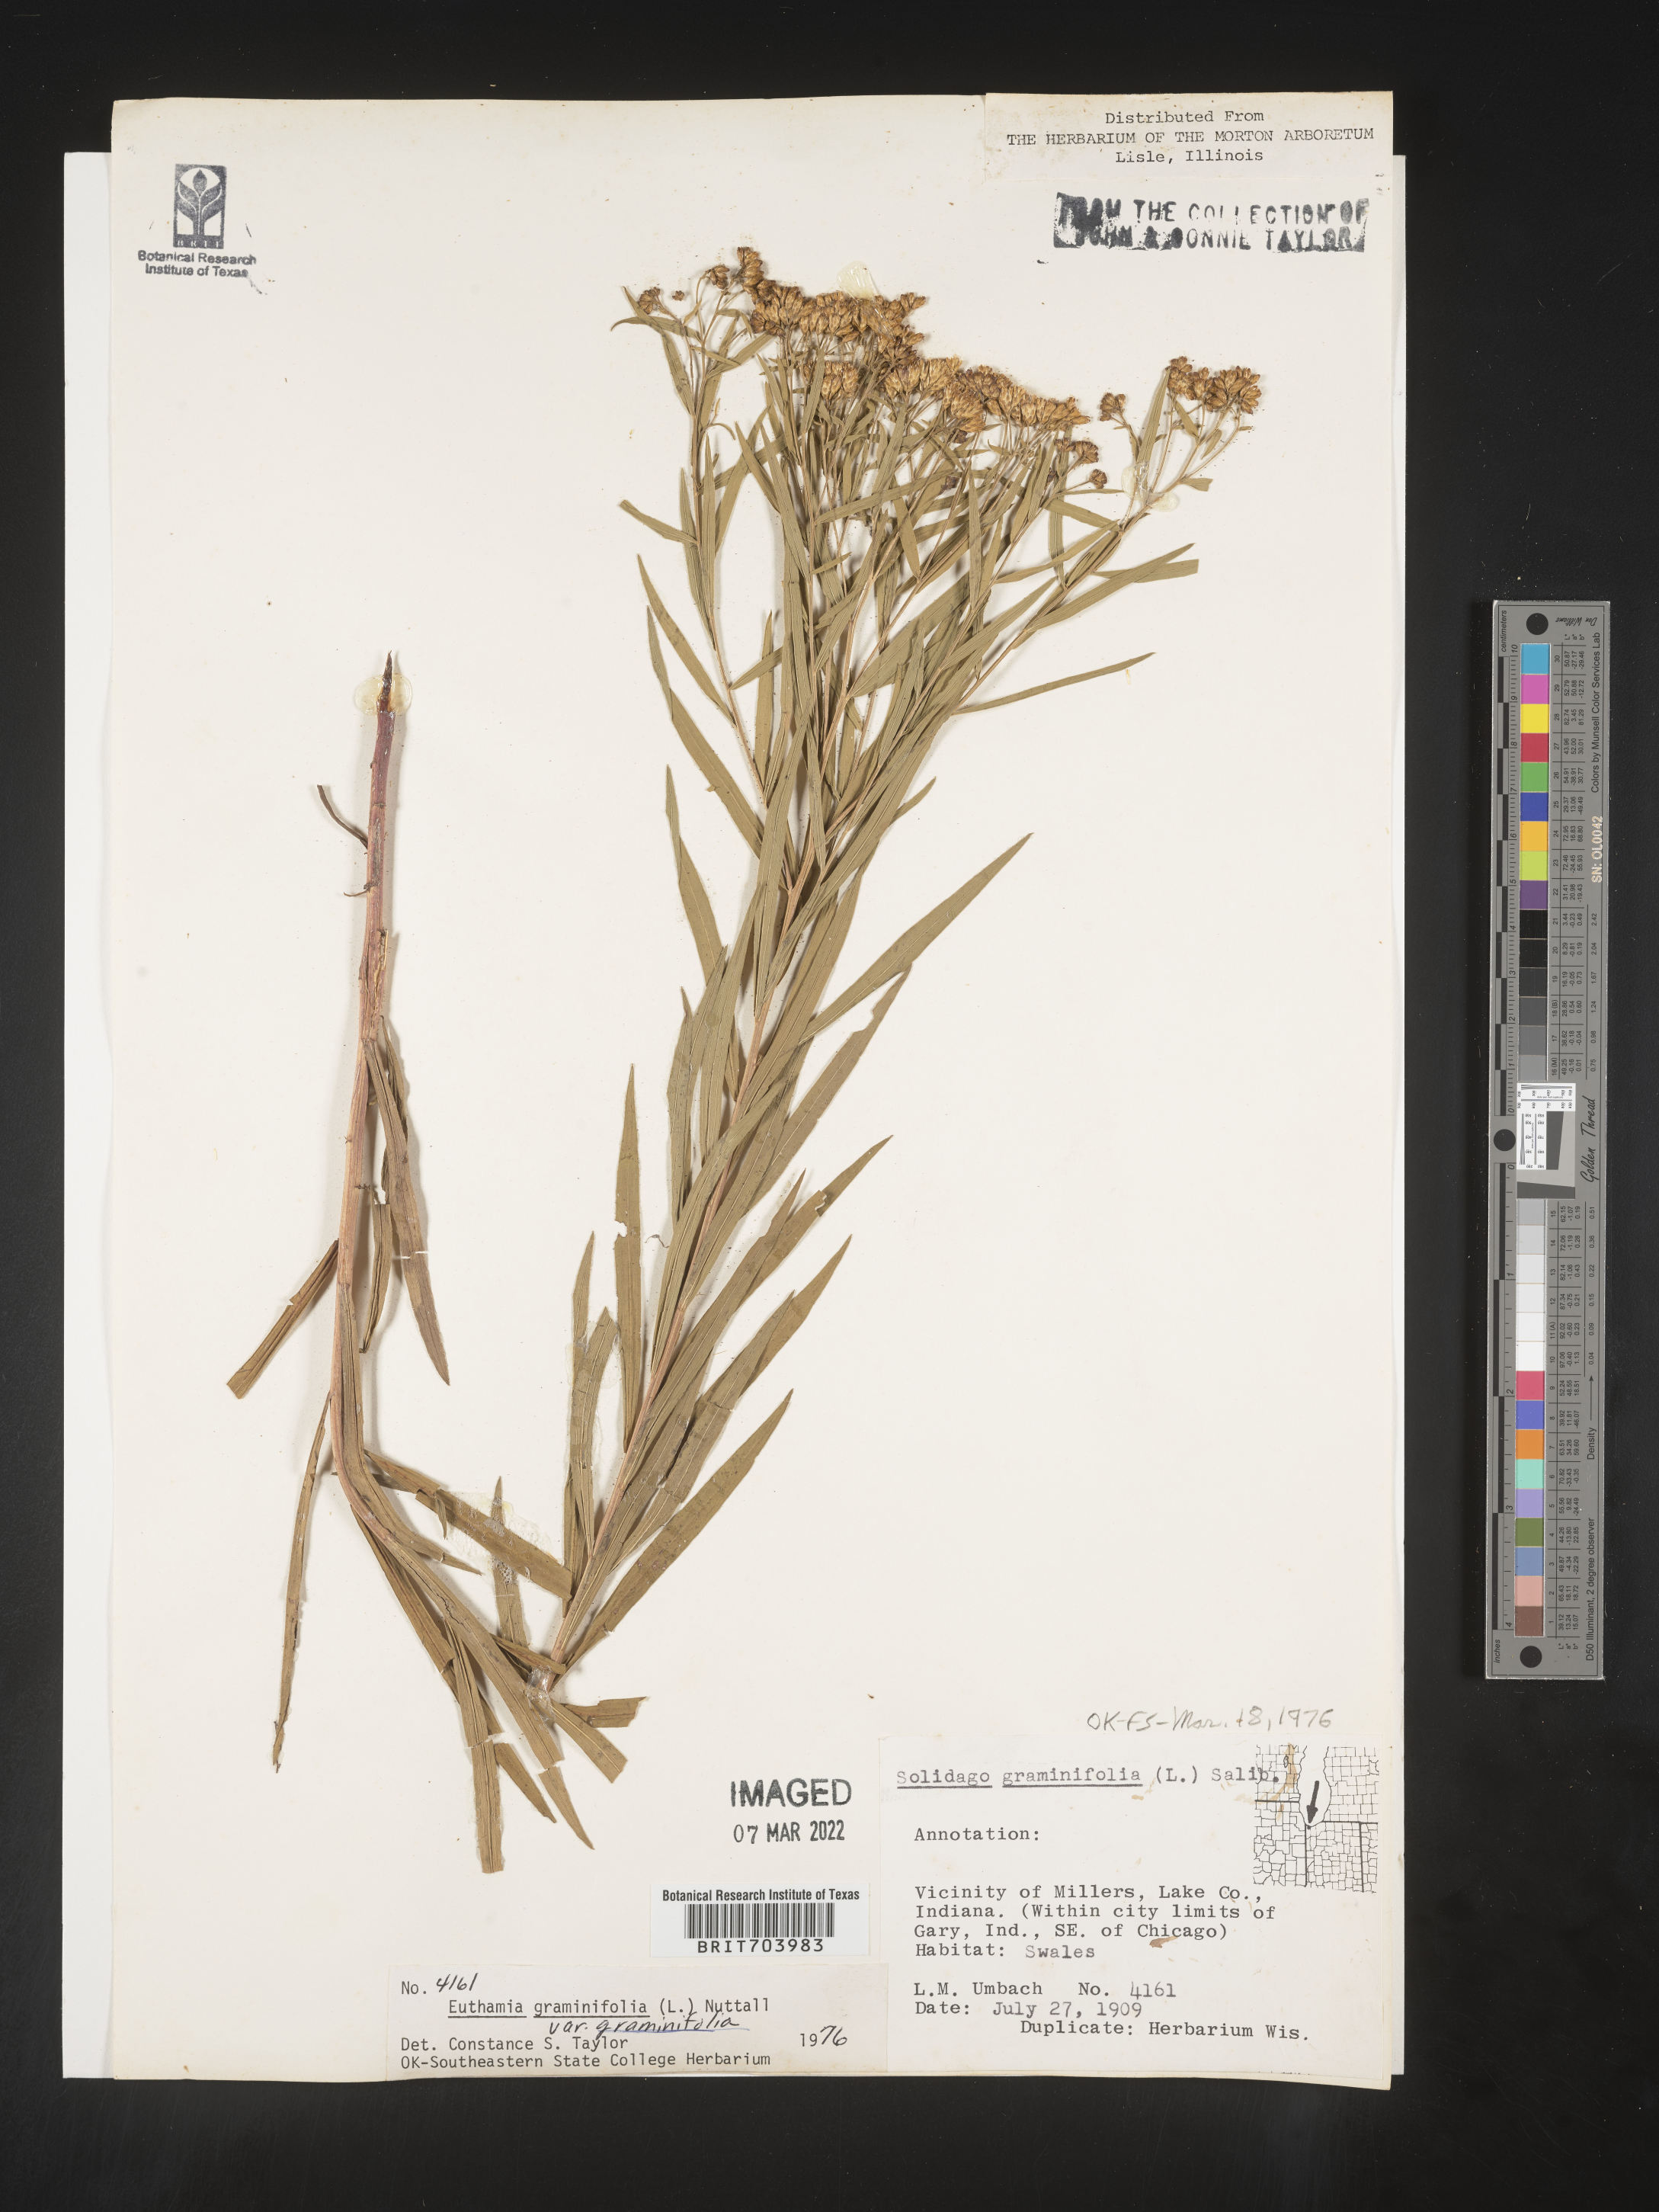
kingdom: Plantae
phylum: Tracheophyta
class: Magnoliopsida
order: Asterales
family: Asteraceae
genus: Euthamia
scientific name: Euthamia graminifolia
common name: Common goldentop
